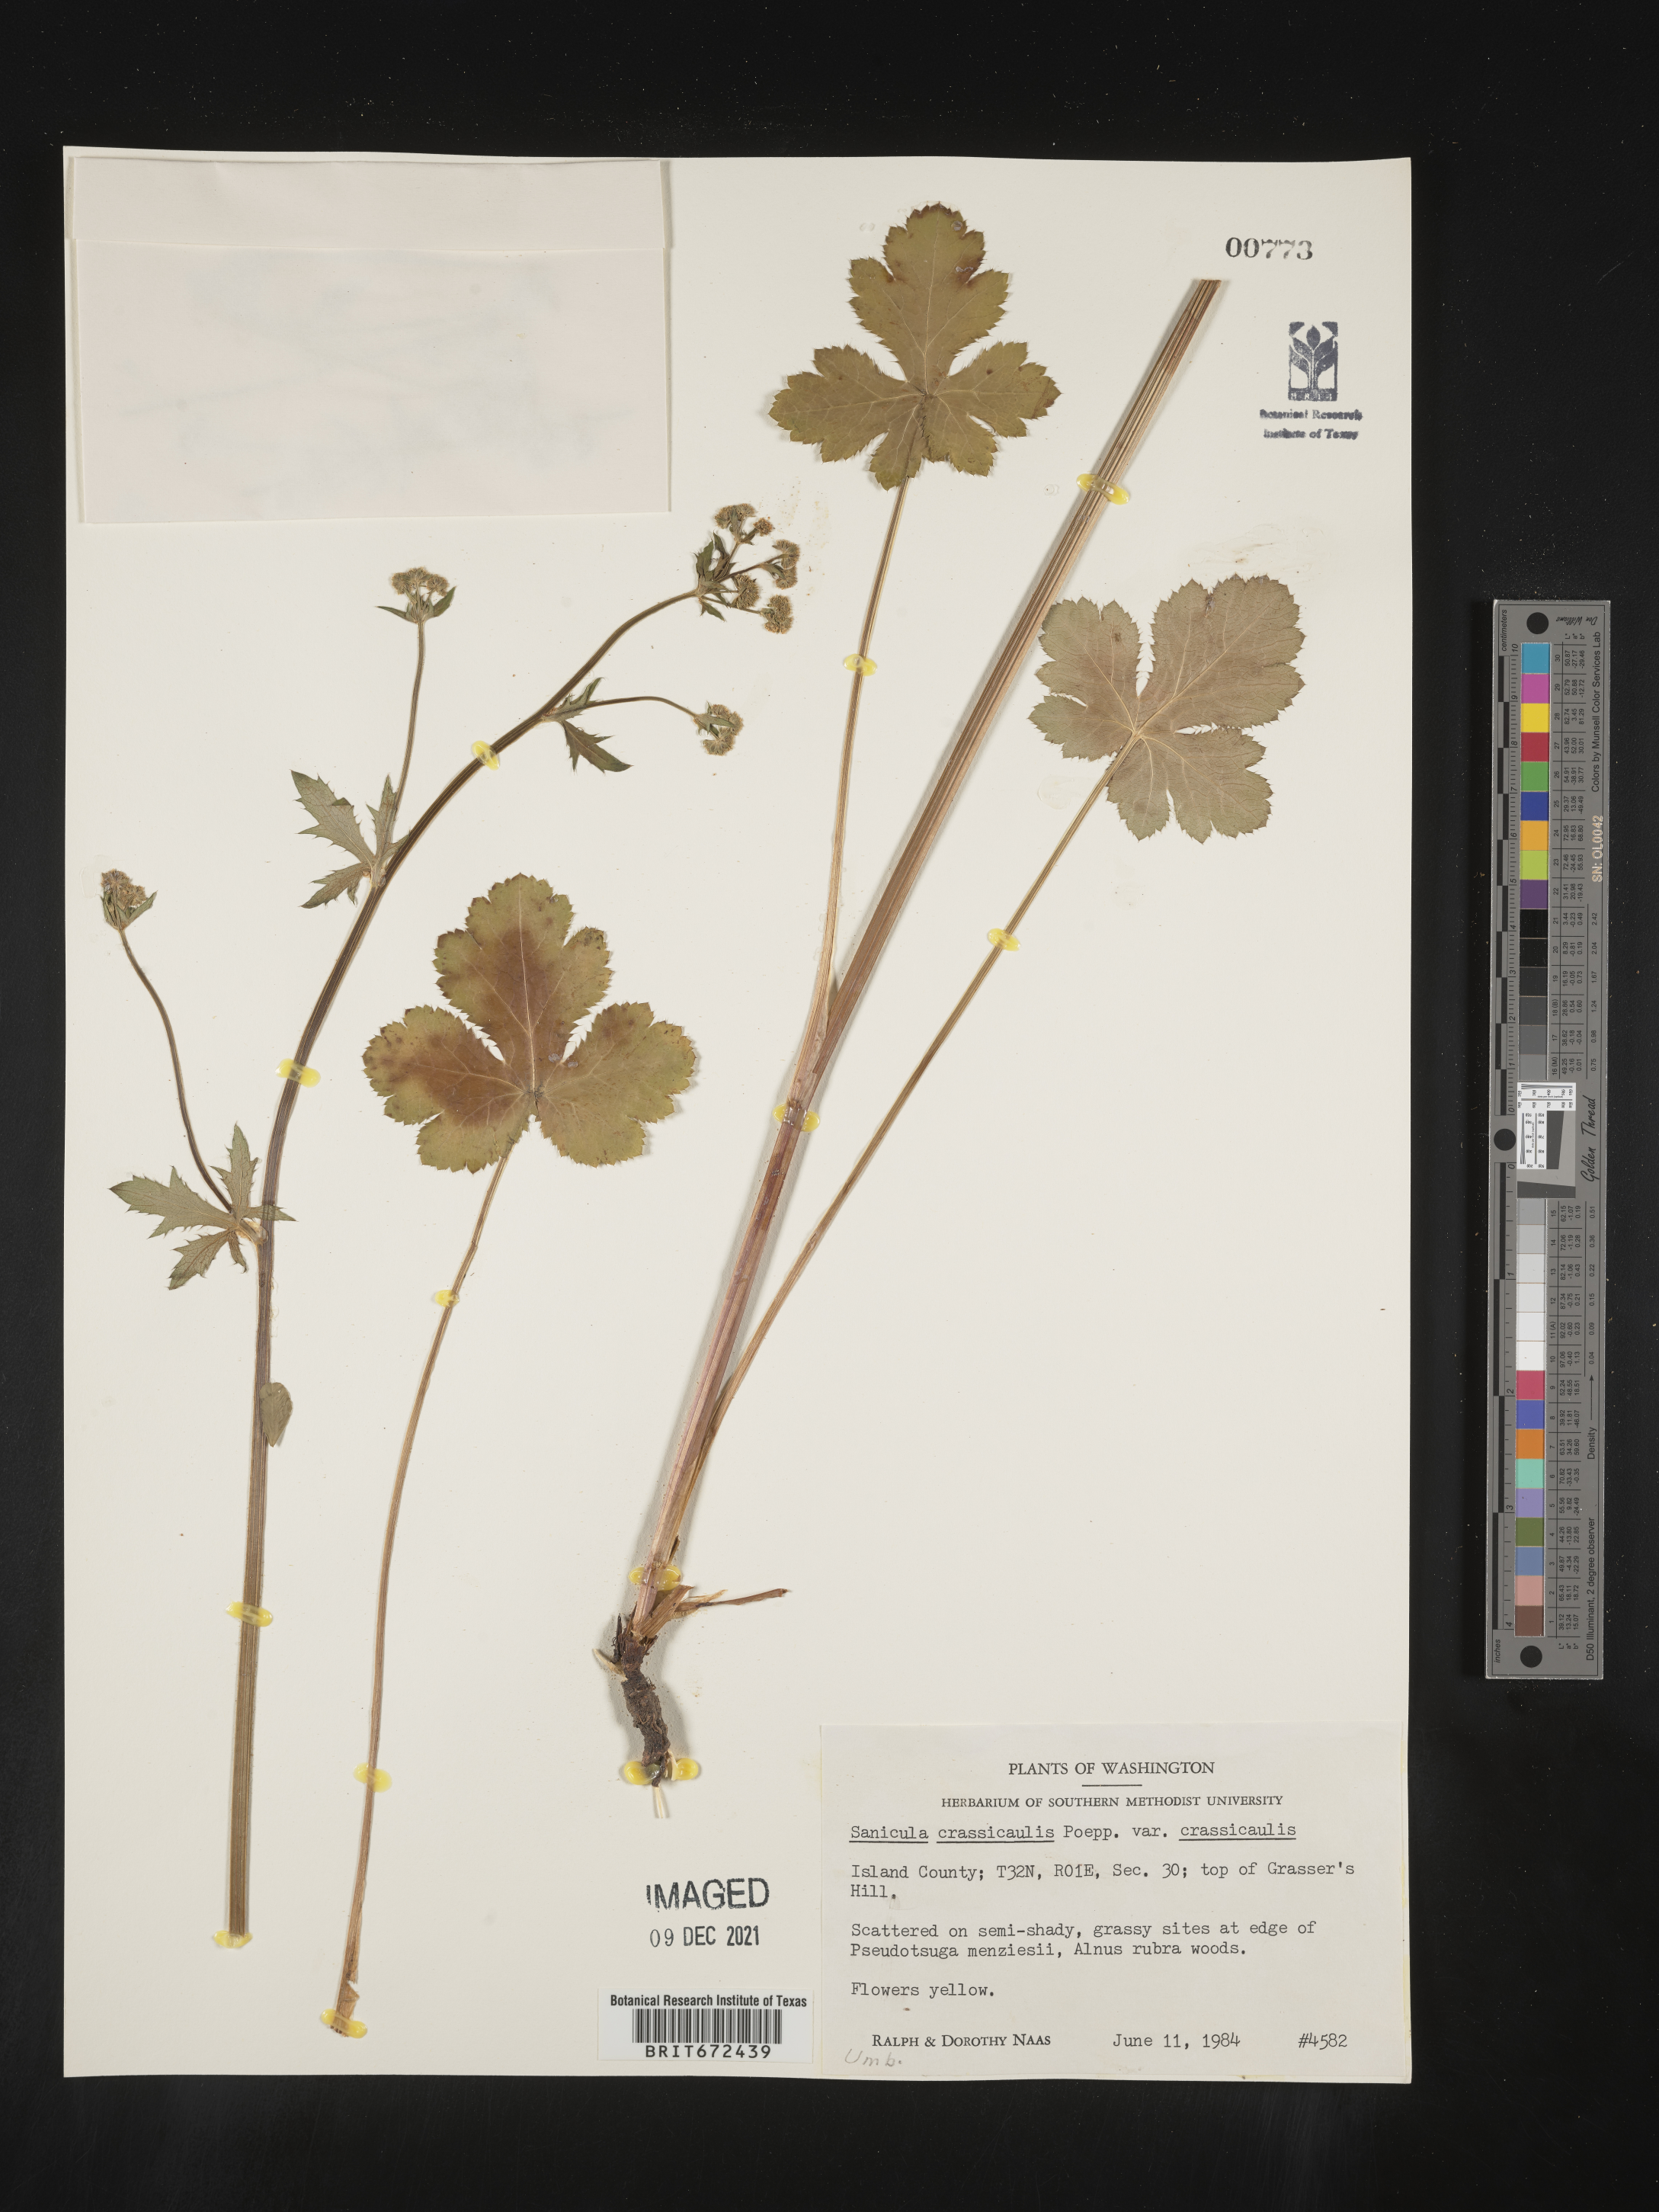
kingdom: Plantae
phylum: Tracheophyta
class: Magnoliopsida
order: Apiales
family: Apiaceae
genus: Sanicula
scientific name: Sanicula crassicaulis
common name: Western snakeroot
